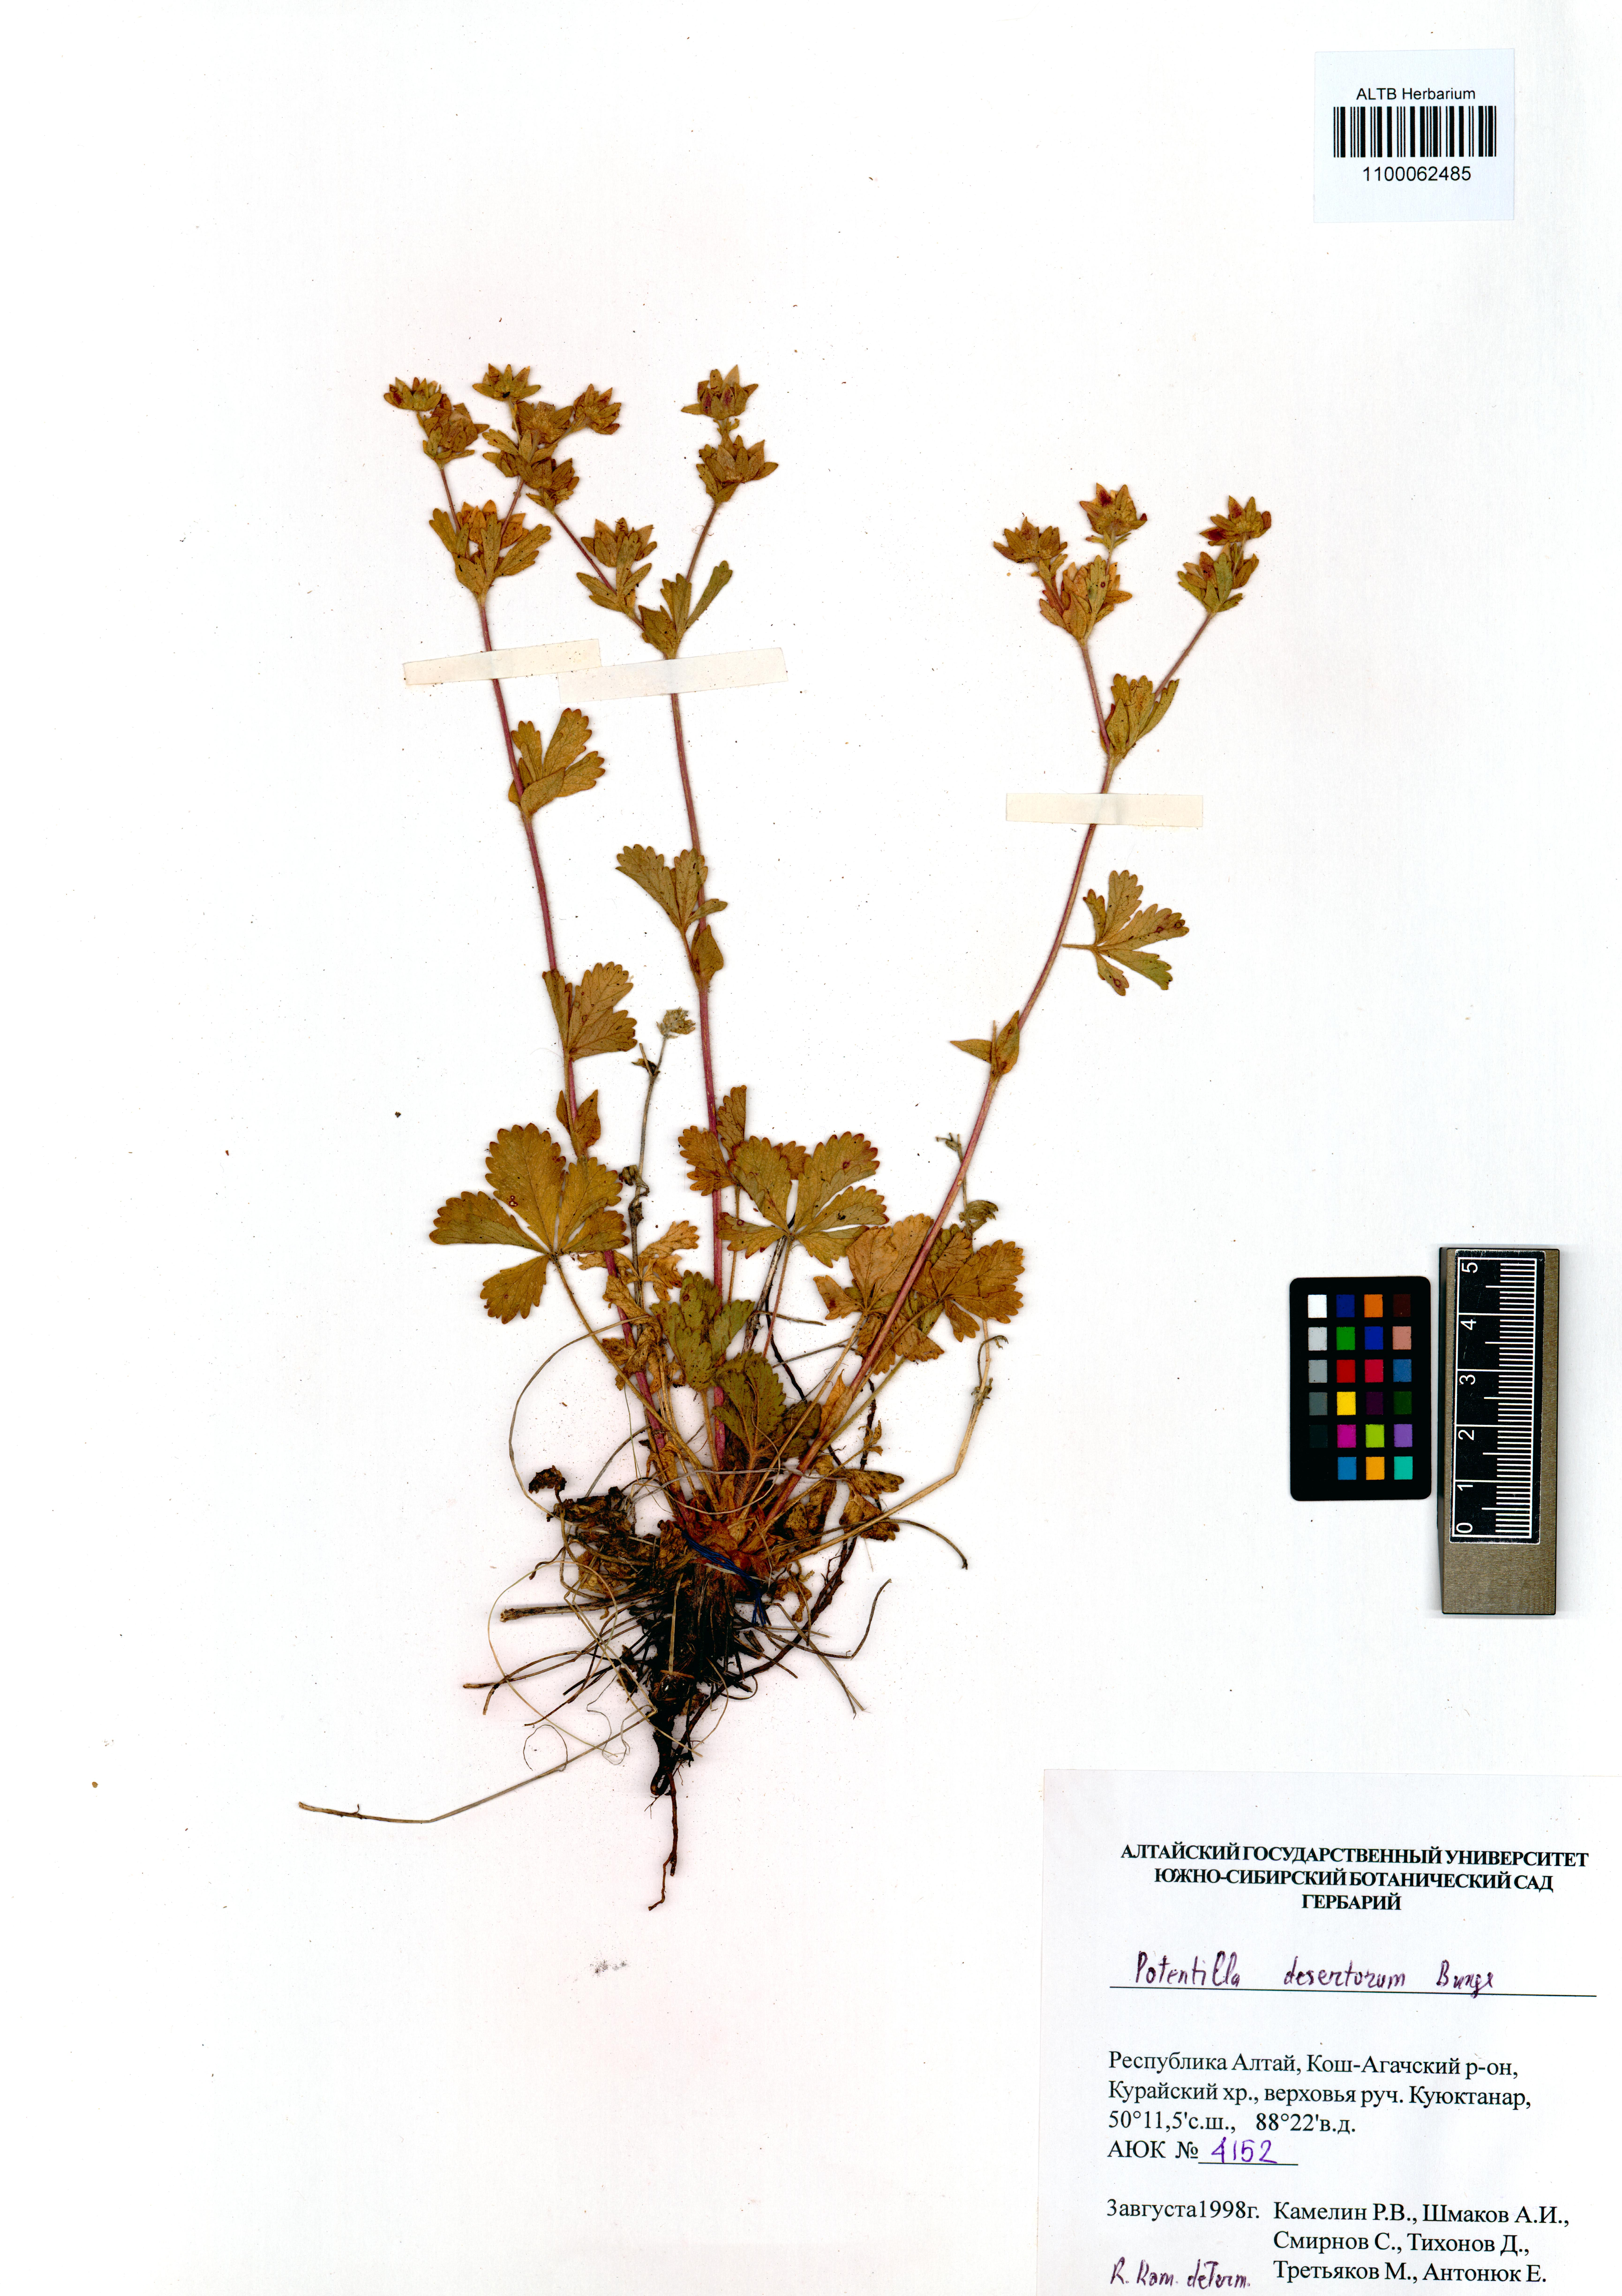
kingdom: Plantae
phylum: Tracheophyta
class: Magnoliopsida
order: Rosales
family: Rosaceae
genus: Potentilla
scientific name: Potentilla desertorum
